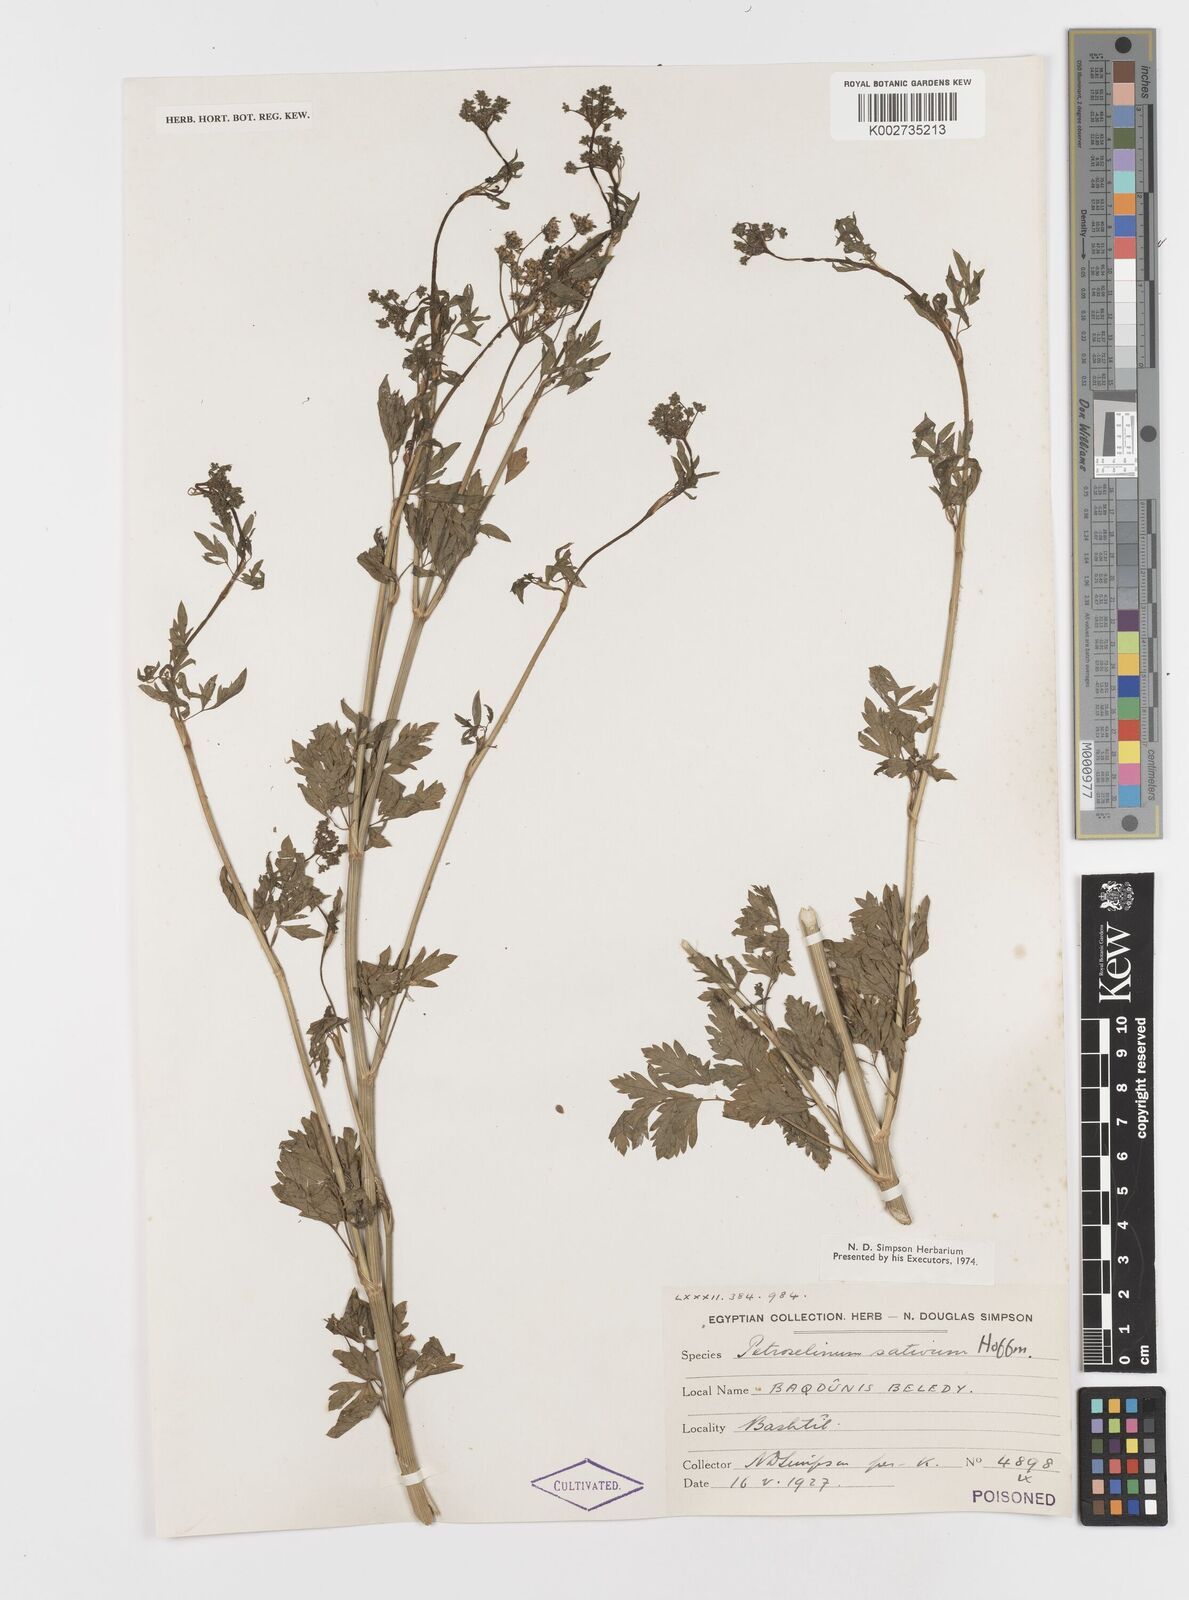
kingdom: Plantae
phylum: Tracheophyta
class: Magnoliopsida
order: Apiales
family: Apiaceae
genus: Petroselinum
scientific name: Petroselinum crispum
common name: Parsley
